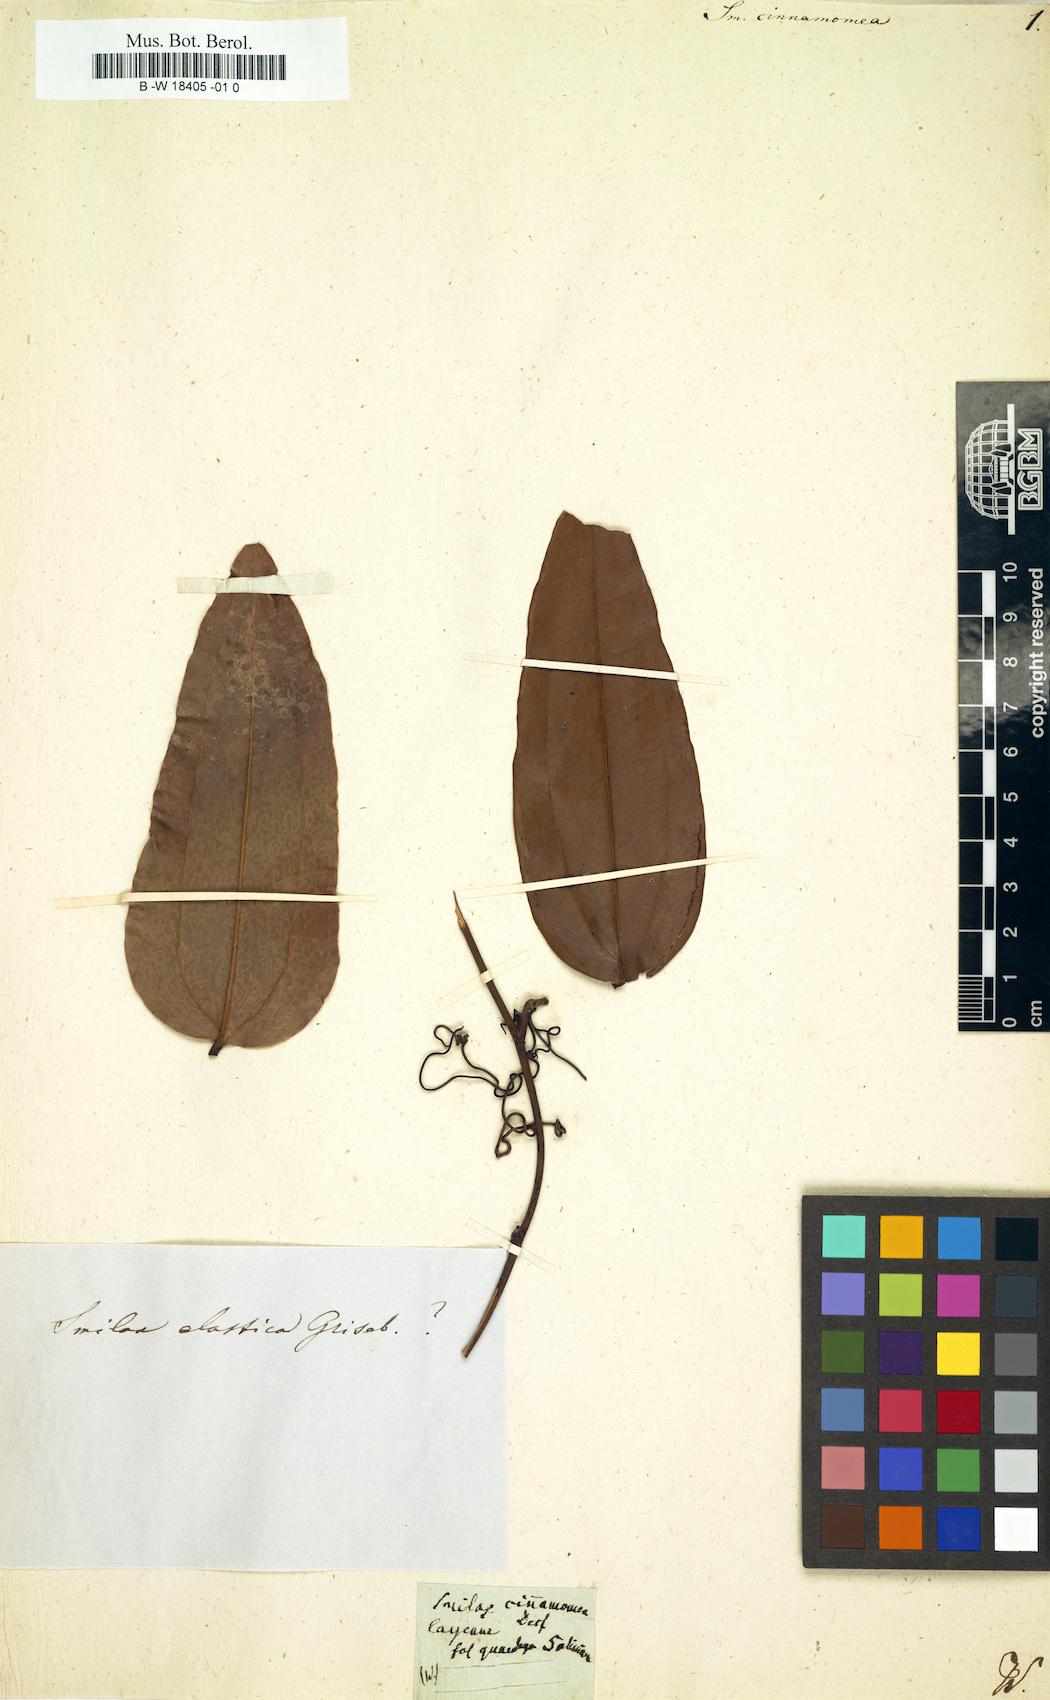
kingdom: Plantae
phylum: Tracheophyta
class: Liliopsida
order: Liliales
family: Smilacaceae
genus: Smilax
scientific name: Smilax cumanensis
